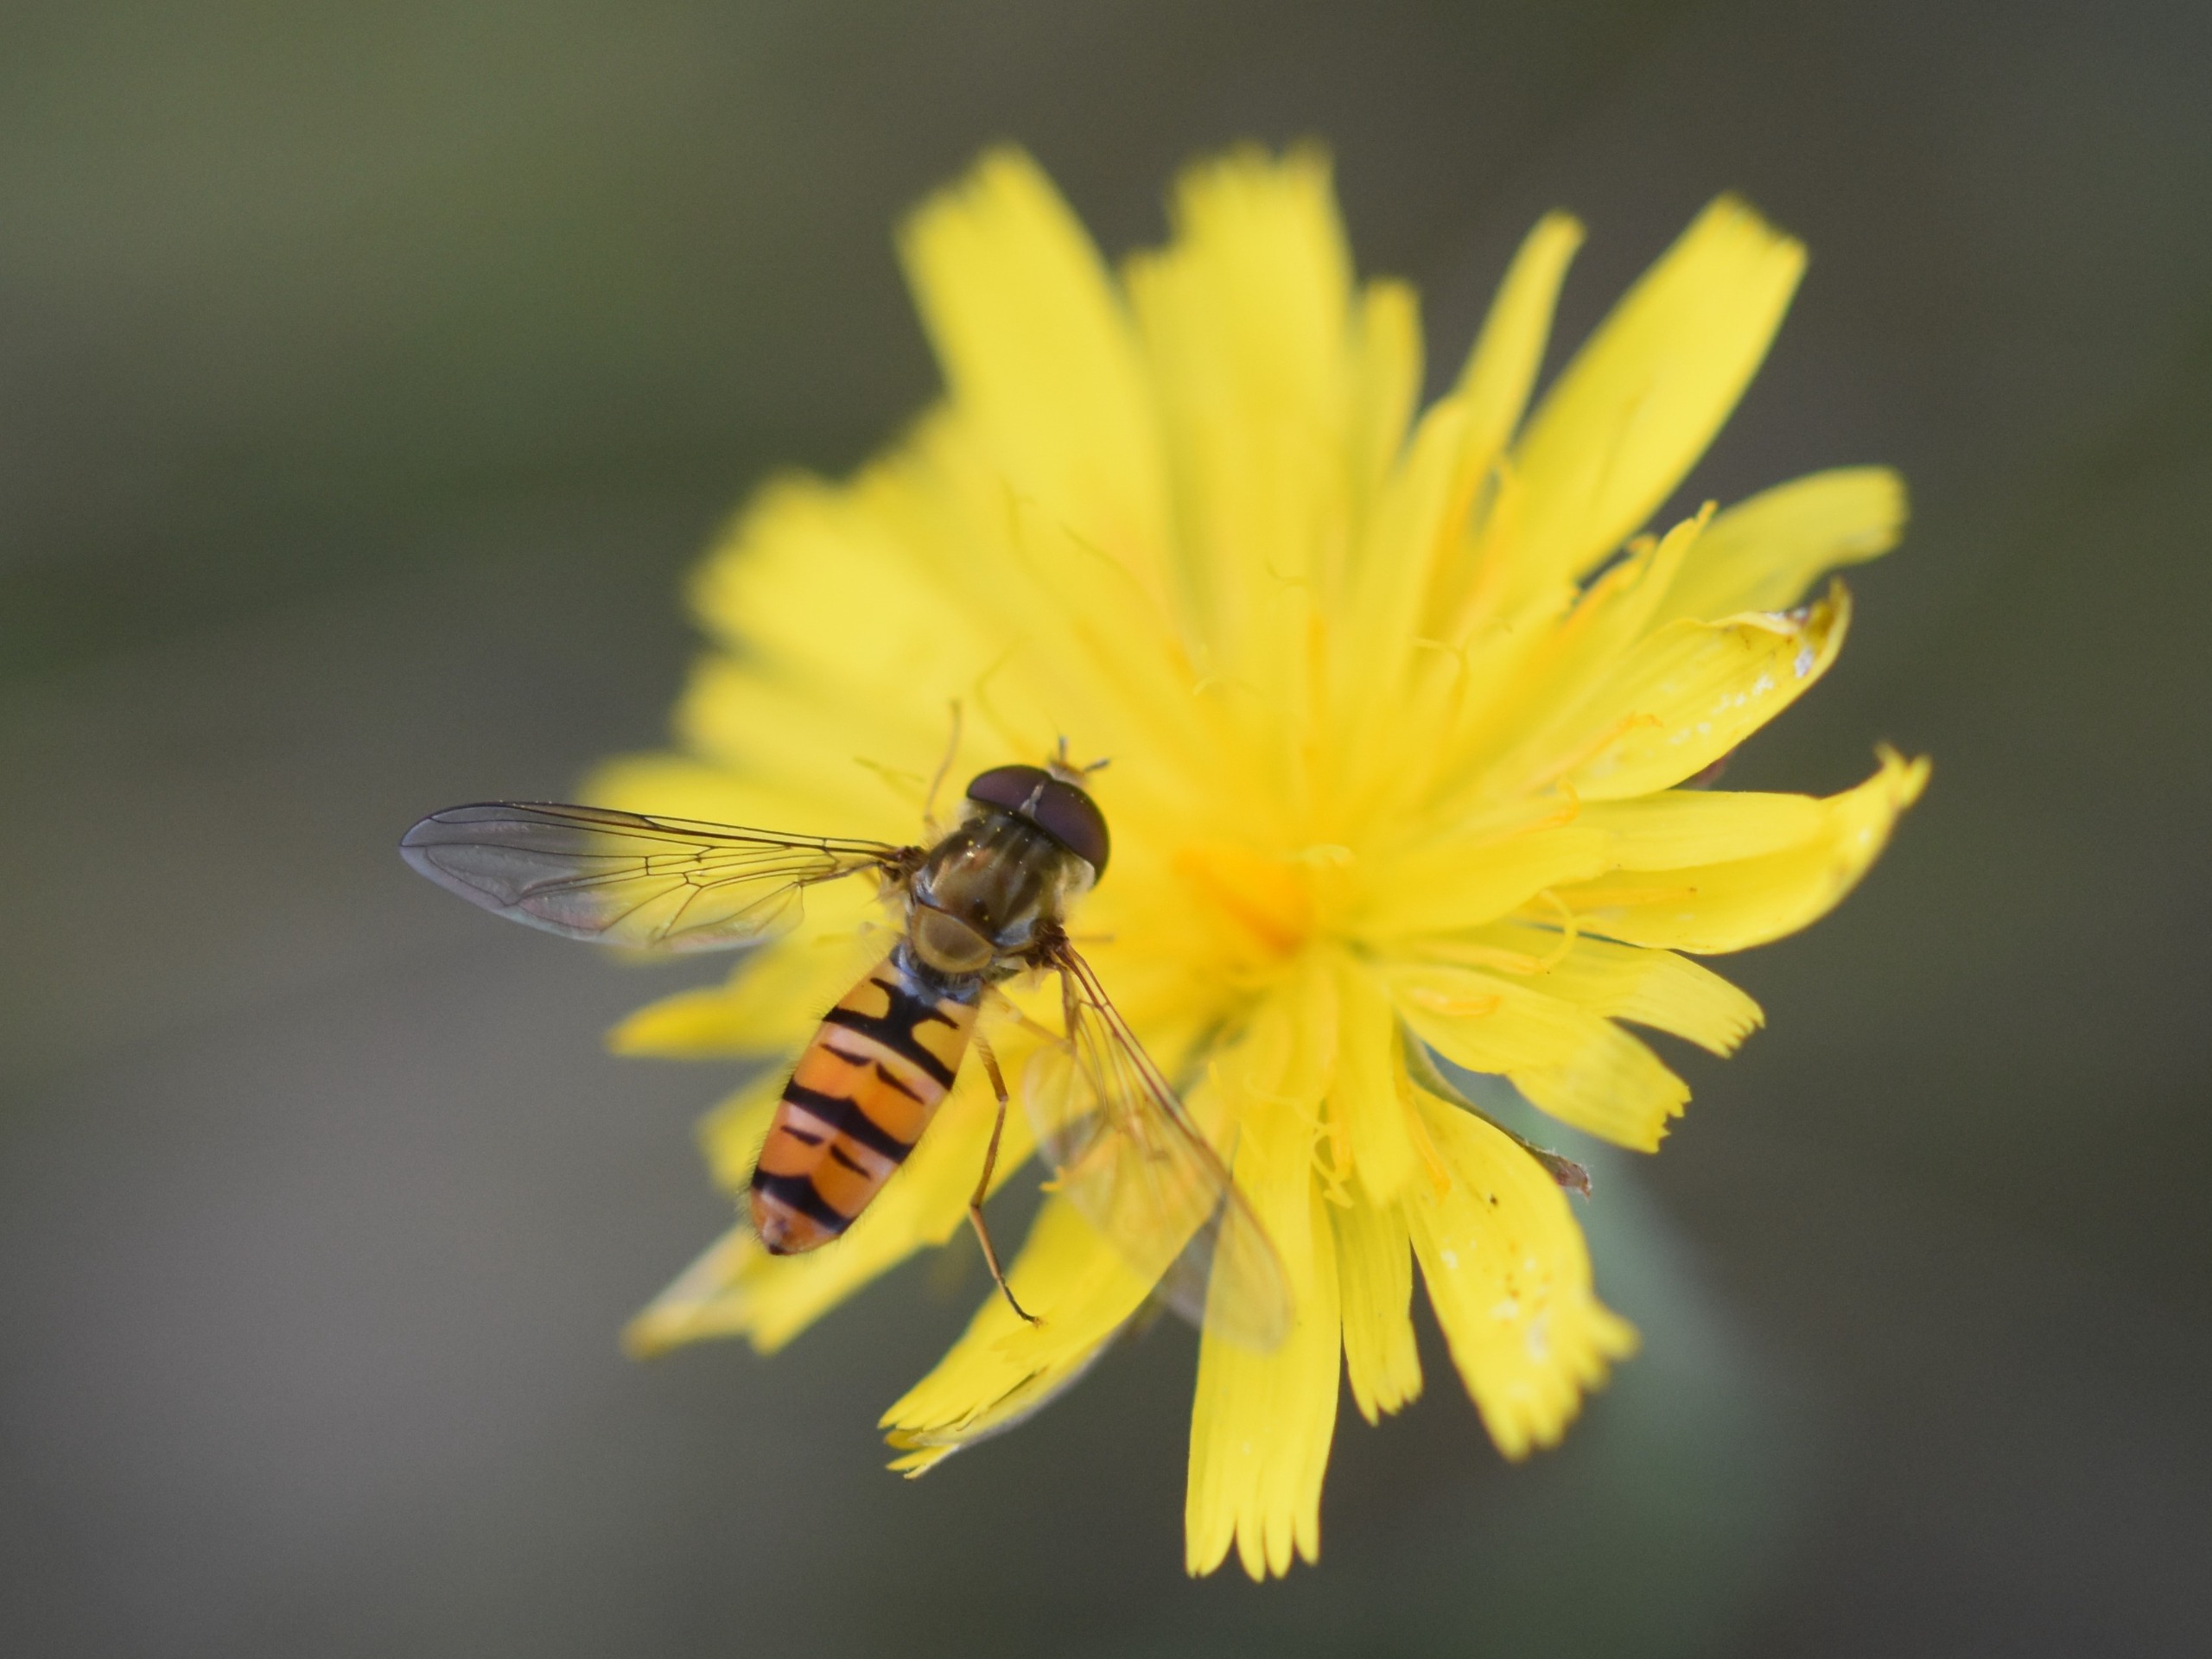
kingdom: Animalia
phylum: Arthropoda
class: Insecta
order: Diptera
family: Syrphidae
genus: Episyrphus
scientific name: Episyrphus balteatus
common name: Dobbeltbåndet svirreflue
